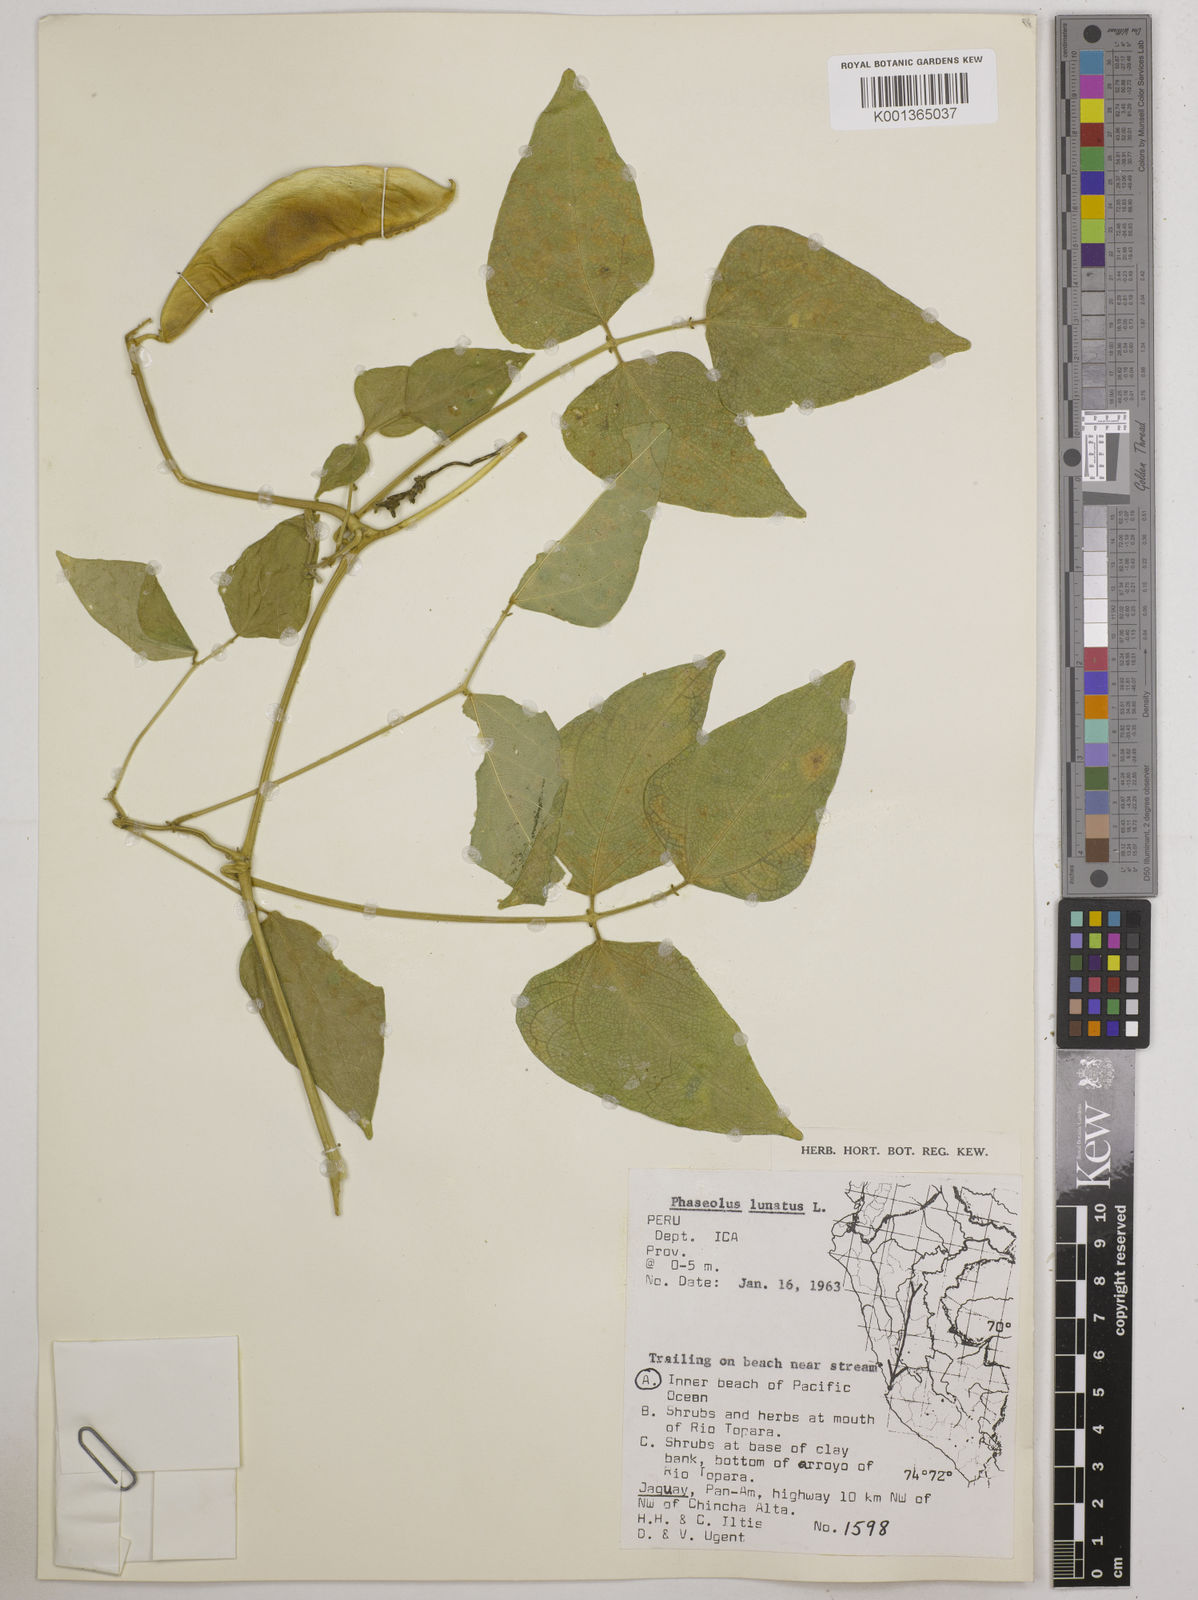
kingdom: Plantae
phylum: Tracheophyta
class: Magnoliopsida
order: Fabales
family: Fabaceae
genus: Phaseolus
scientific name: Phaseolus lunatus
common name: Sieva bean
